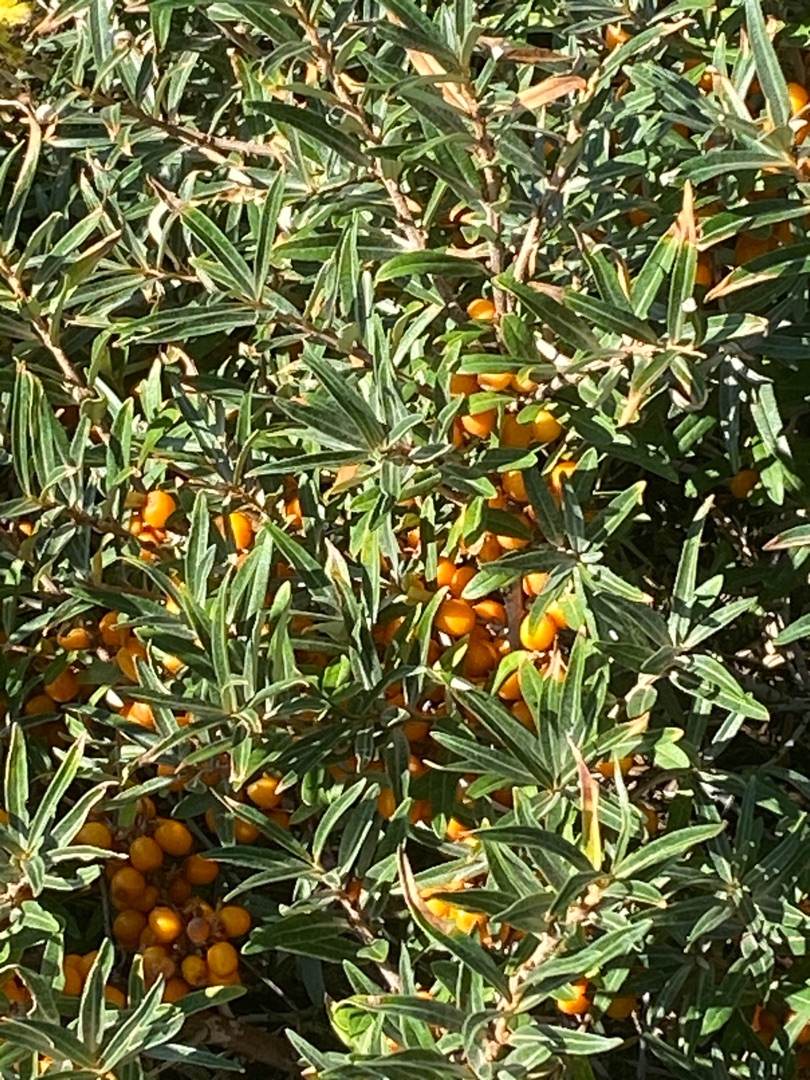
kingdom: Plantae
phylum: Tracheophyta
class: Magnoliopsida
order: Rosales
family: Elaeagnaceae
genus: Hippophae
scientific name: Hippophae rhamnoides
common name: Havtorn
